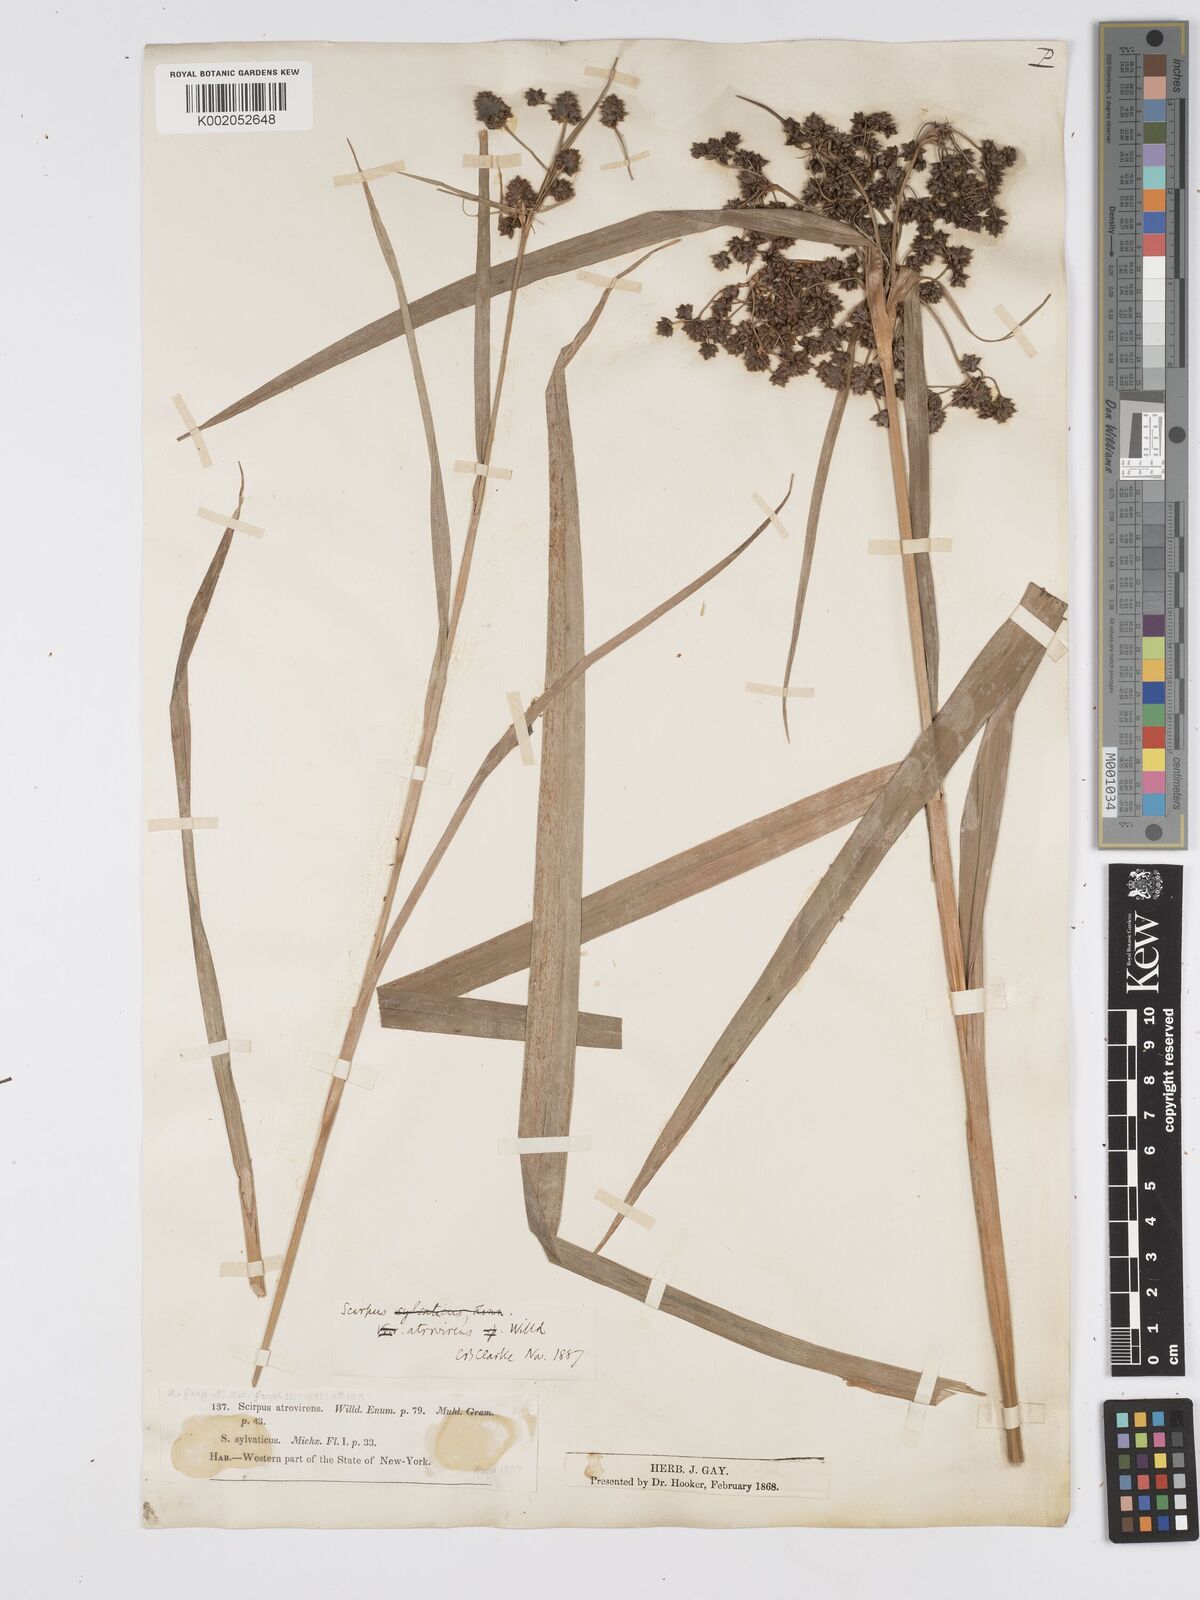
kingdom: Plantae
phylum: Tracheophyta
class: Liliopsida
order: Poales
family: Cyperaceae
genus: Scirpus
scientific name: Scirpus atrovirens
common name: Black bulrush
